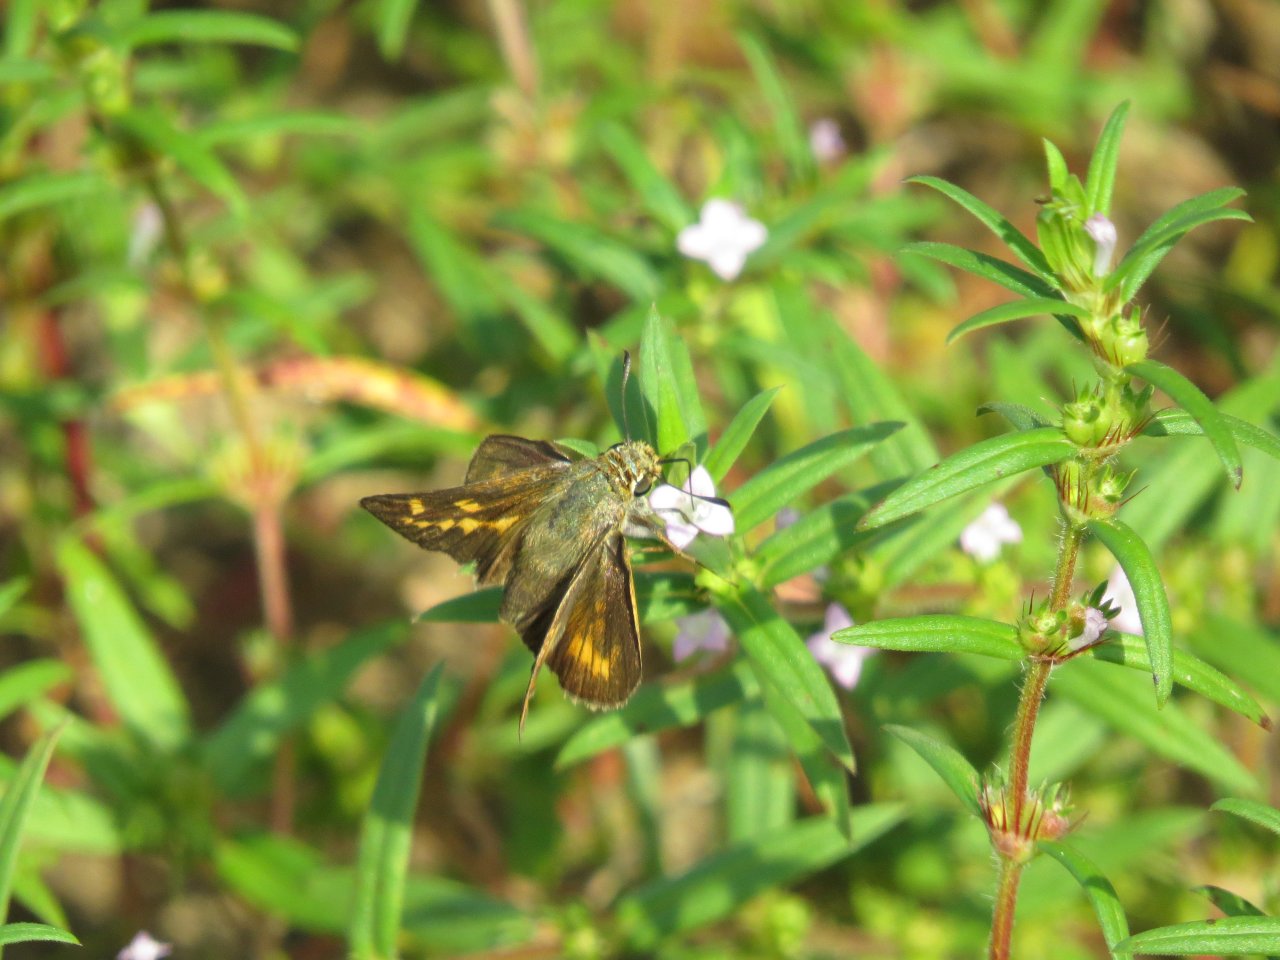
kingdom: Animalia
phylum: Arthropoda
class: Insecta
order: Lepidoptera
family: Hesperiidae
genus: Hesperia
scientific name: Hesperia meskei
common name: Meske's Skipper
